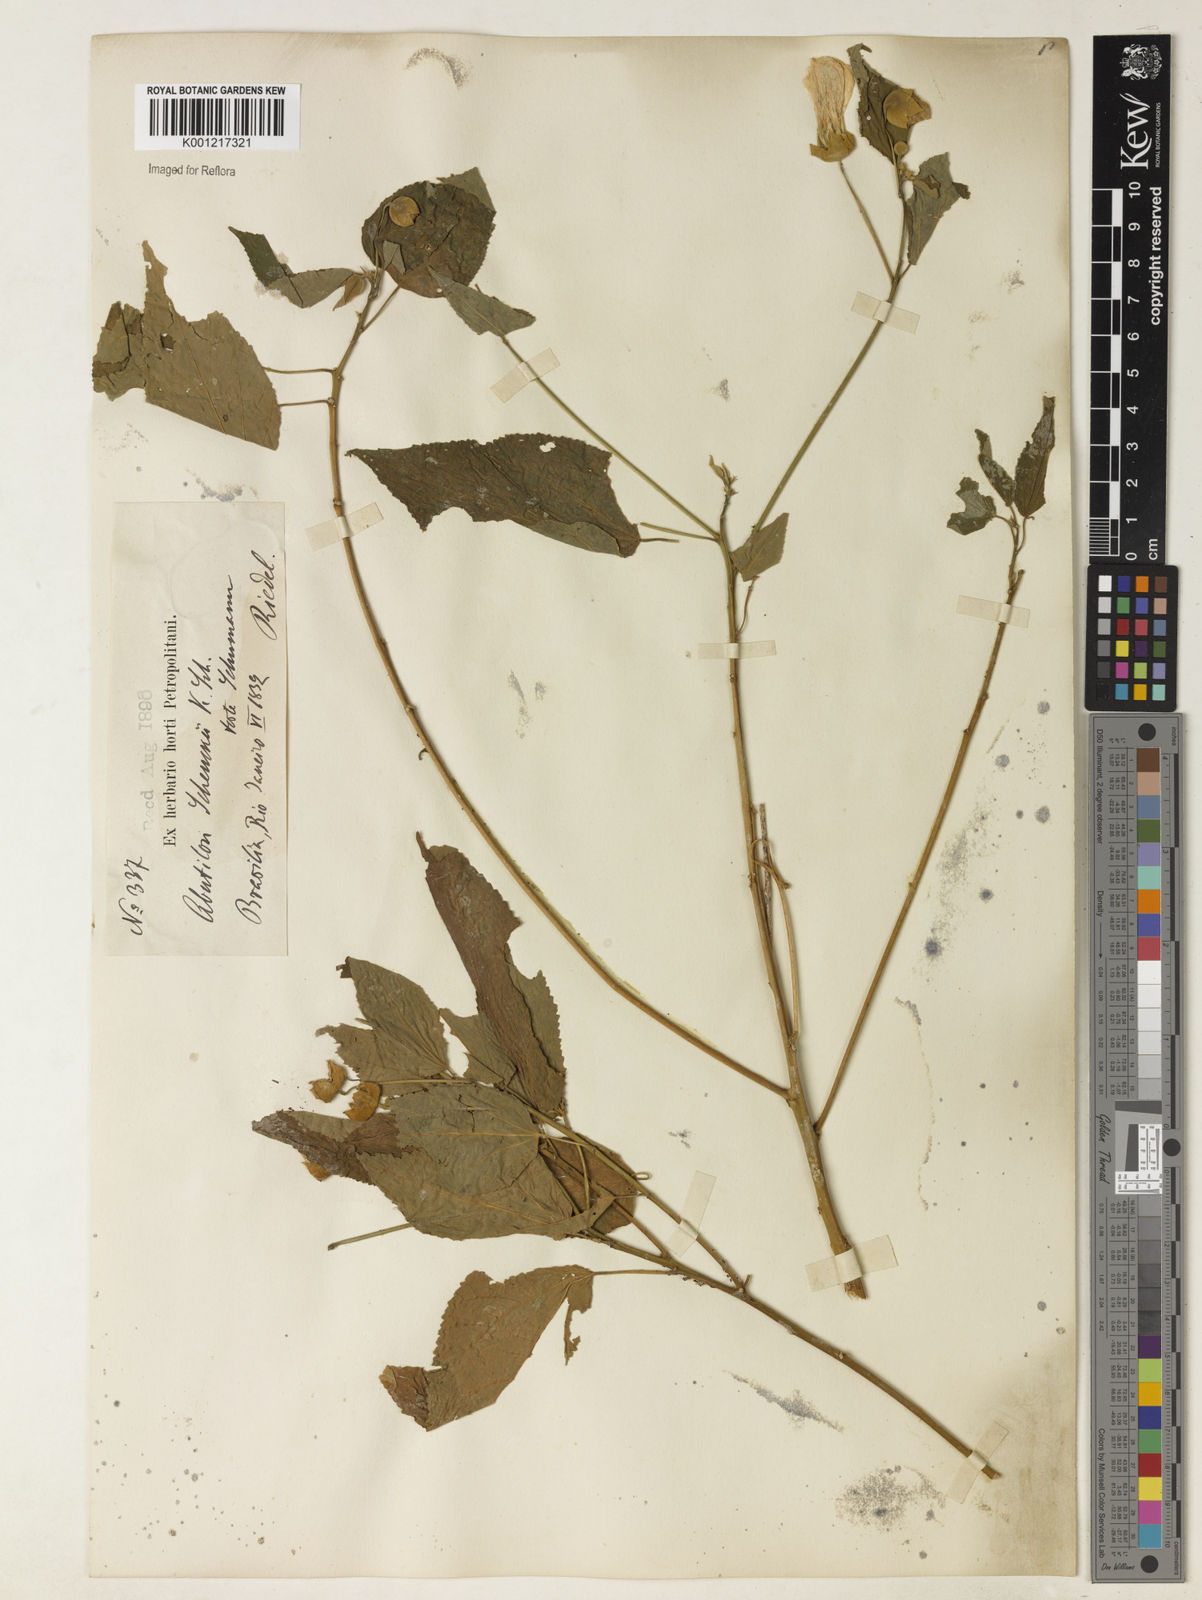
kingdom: Plantae
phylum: Tracheophyta
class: Magnoliopsida
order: Malvales
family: Malvaceae
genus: Callianthe
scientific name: Callianthe schenckii
